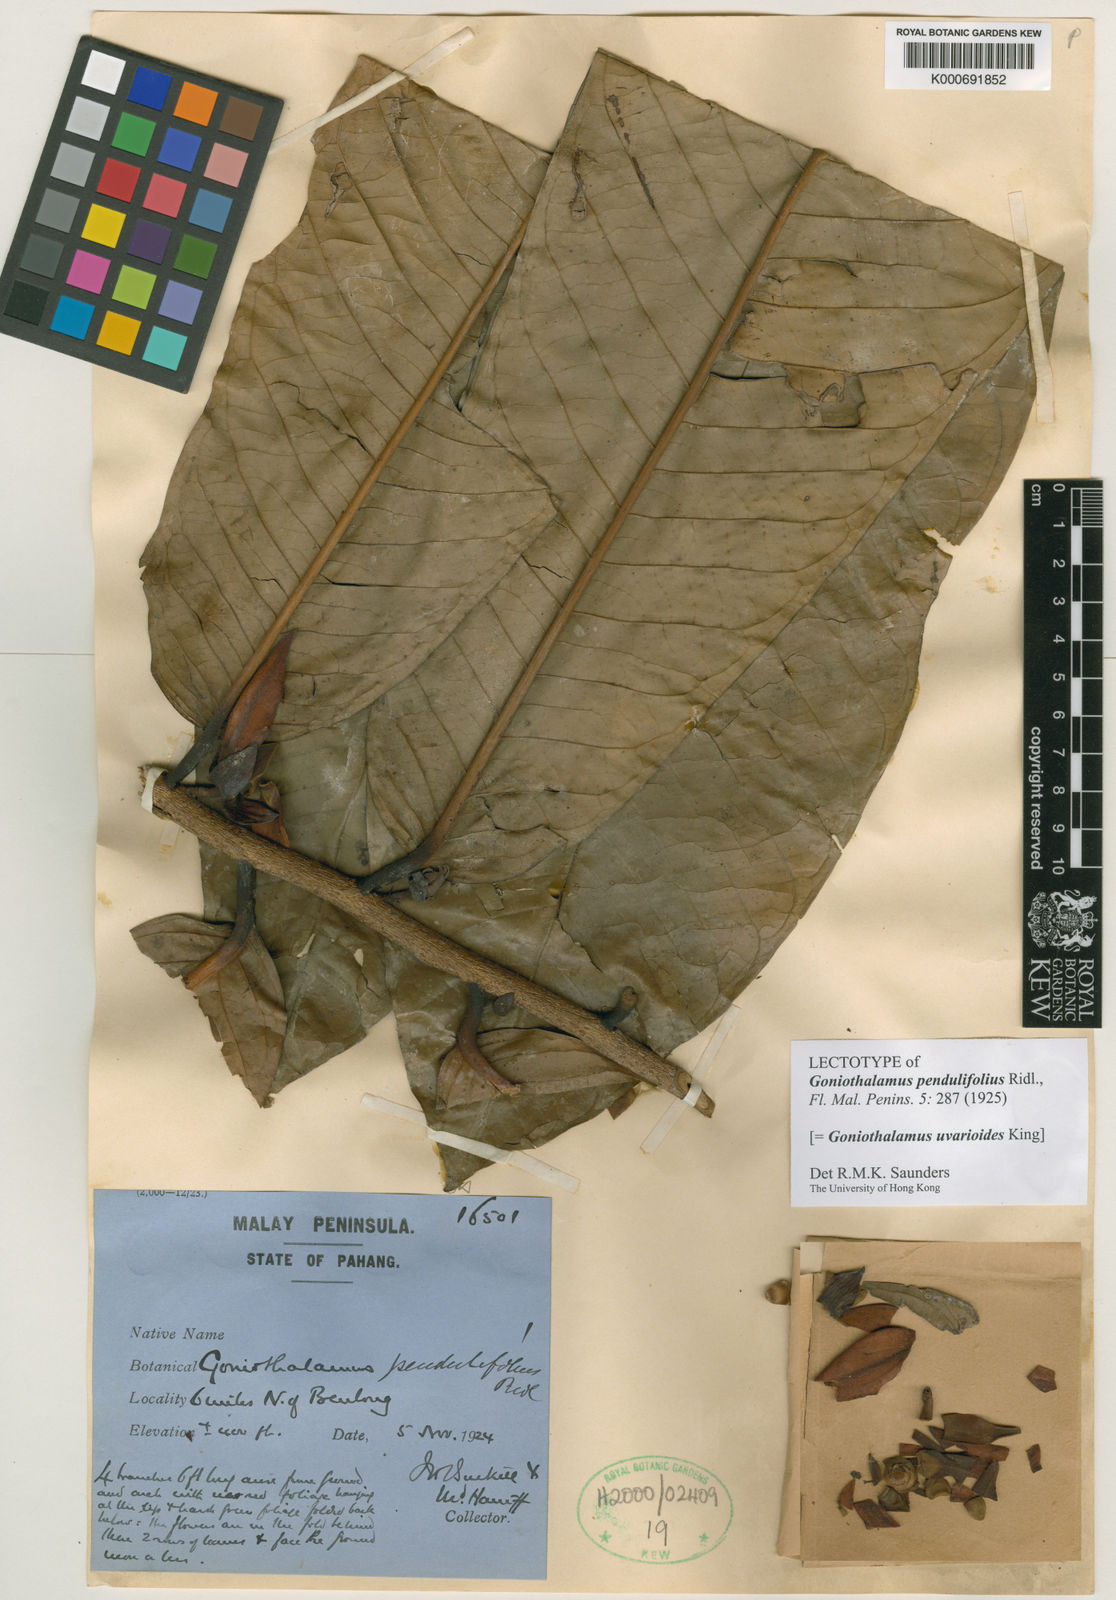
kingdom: Plantae
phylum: Tracheophyta
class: Magnoliopsida
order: Magnoliales
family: Annonaceae
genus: Goniothalamus
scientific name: Goniothalamus uvarioides
